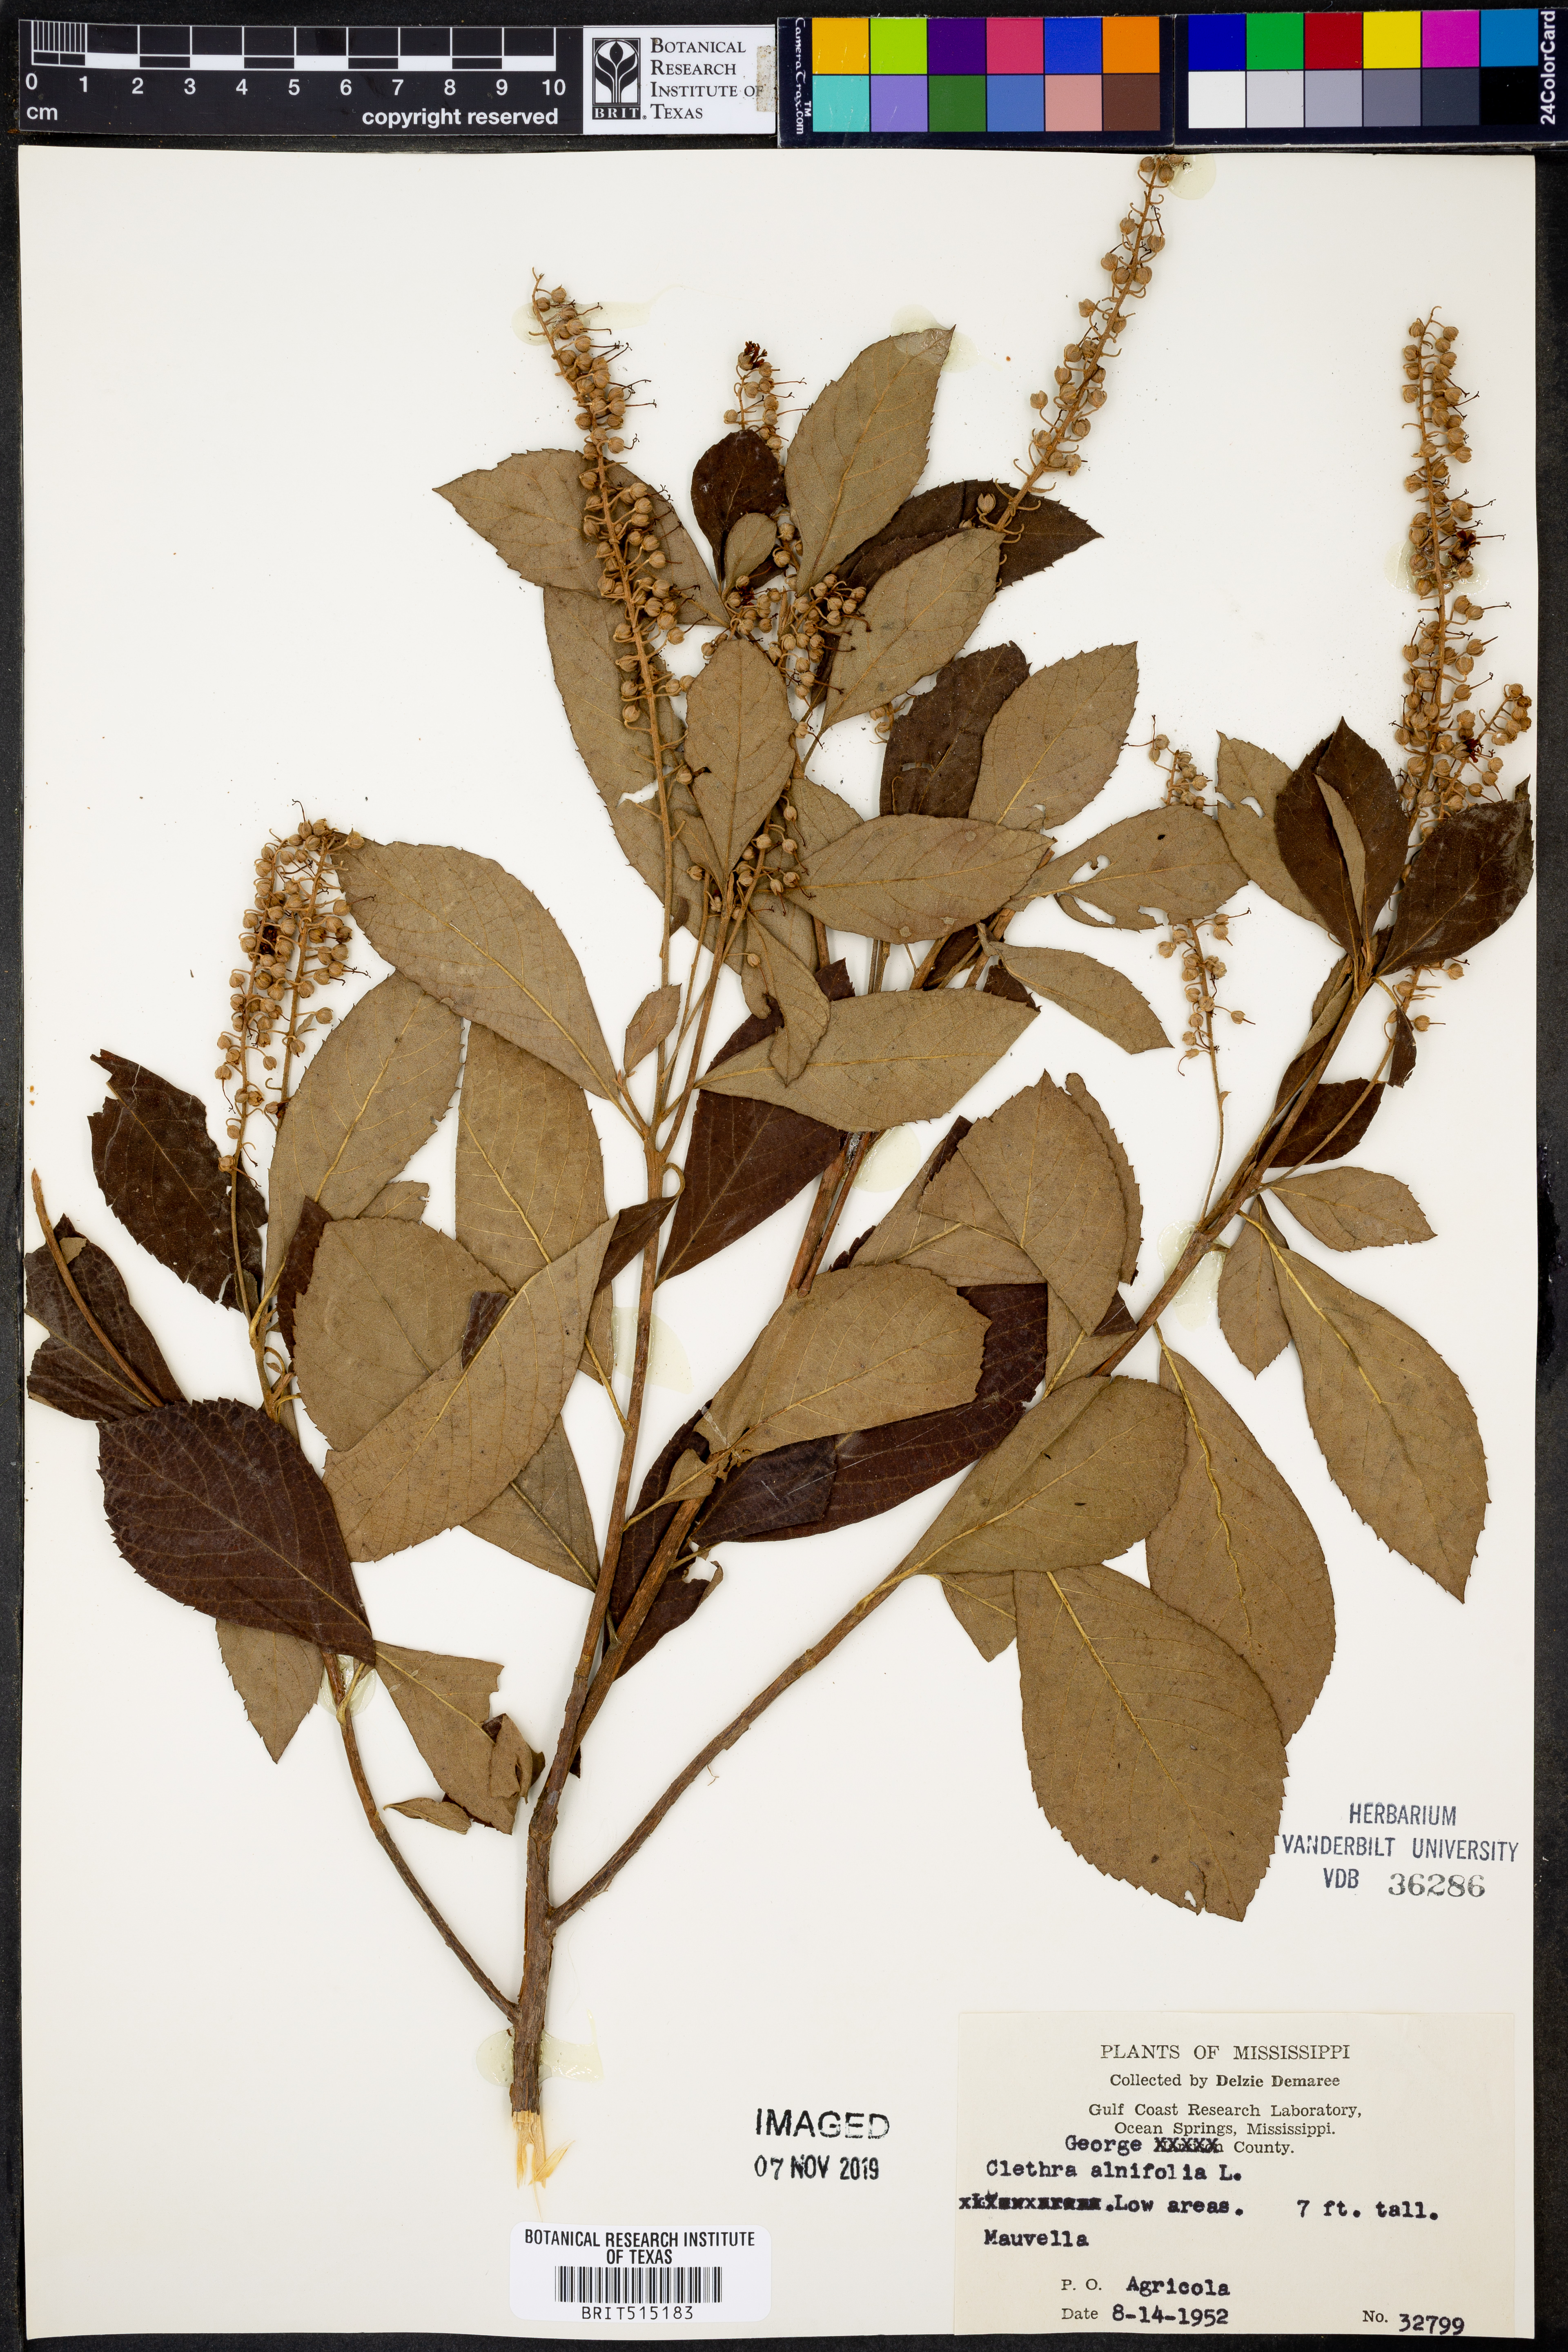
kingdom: Plantae
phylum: Tracheophyta
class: Magnoliopsida
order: Ericales
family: Clethraceae
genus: Clethra
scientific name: Clethra alnifolia
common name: Sweet pepperbush
